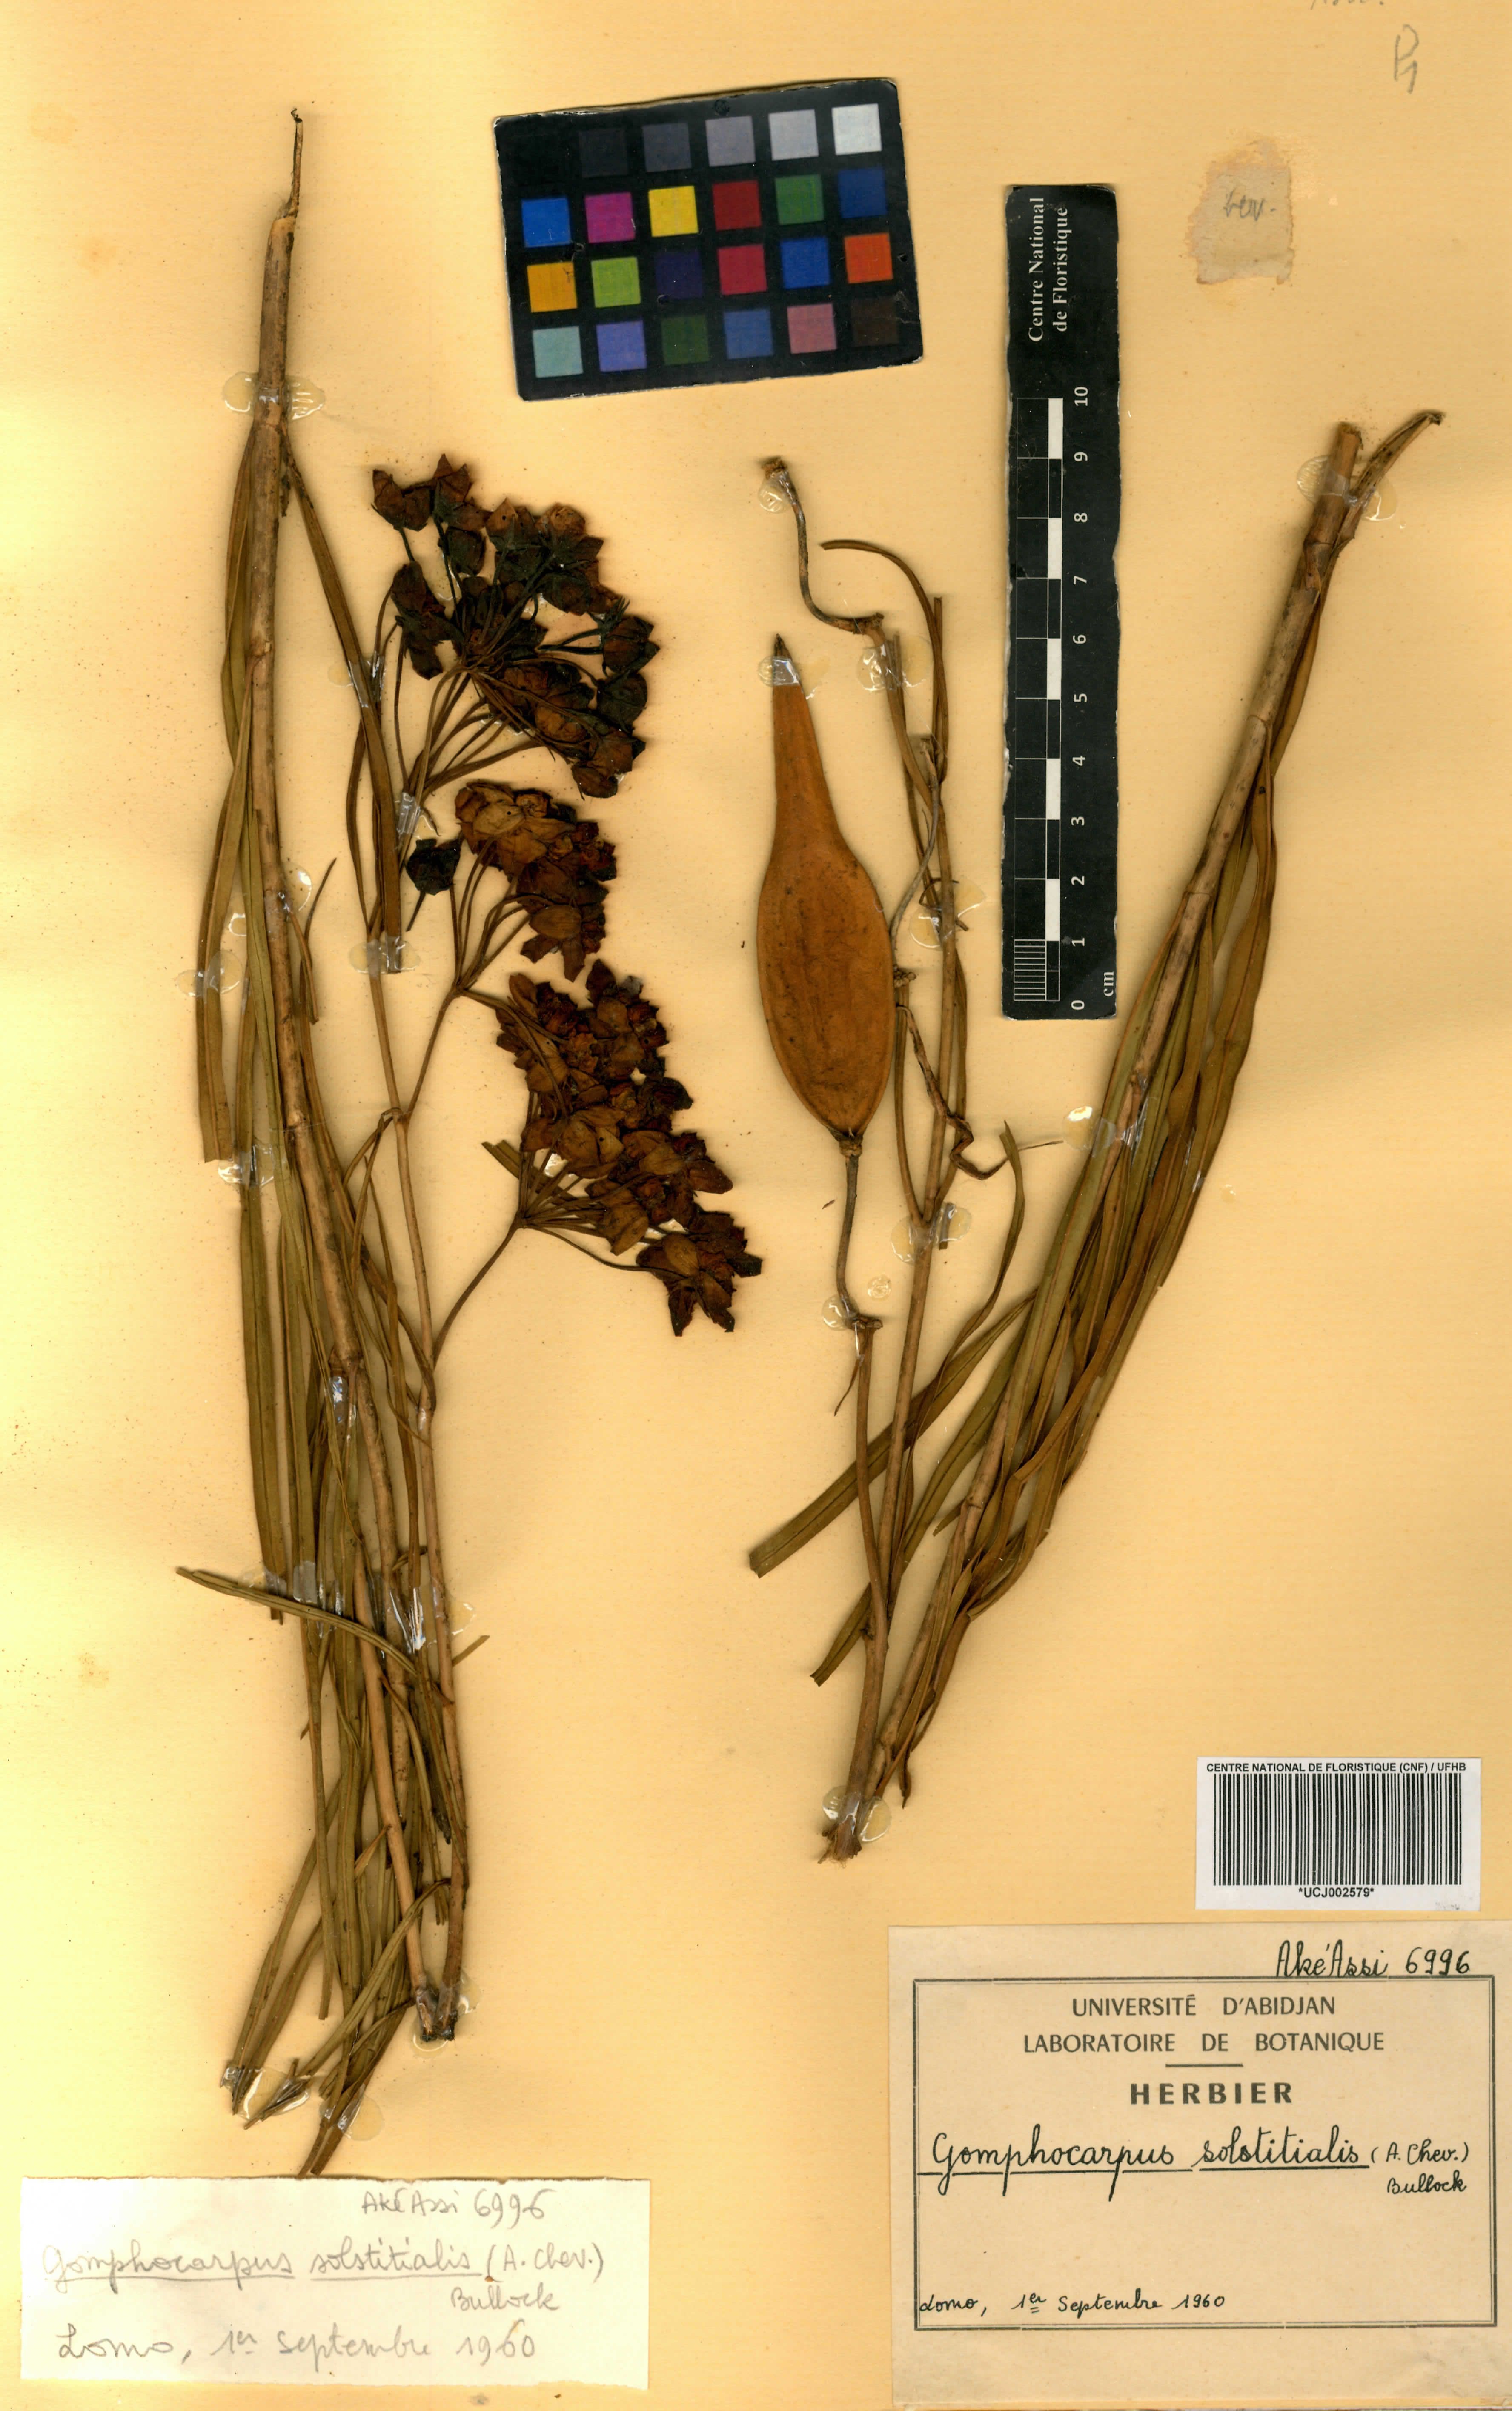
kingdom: Plantae
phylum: Tracheophyta
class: Magnoliopsida
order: Gentianales
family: Apocynaceae
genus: Asclepias
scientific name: Asclepias solstitialis
